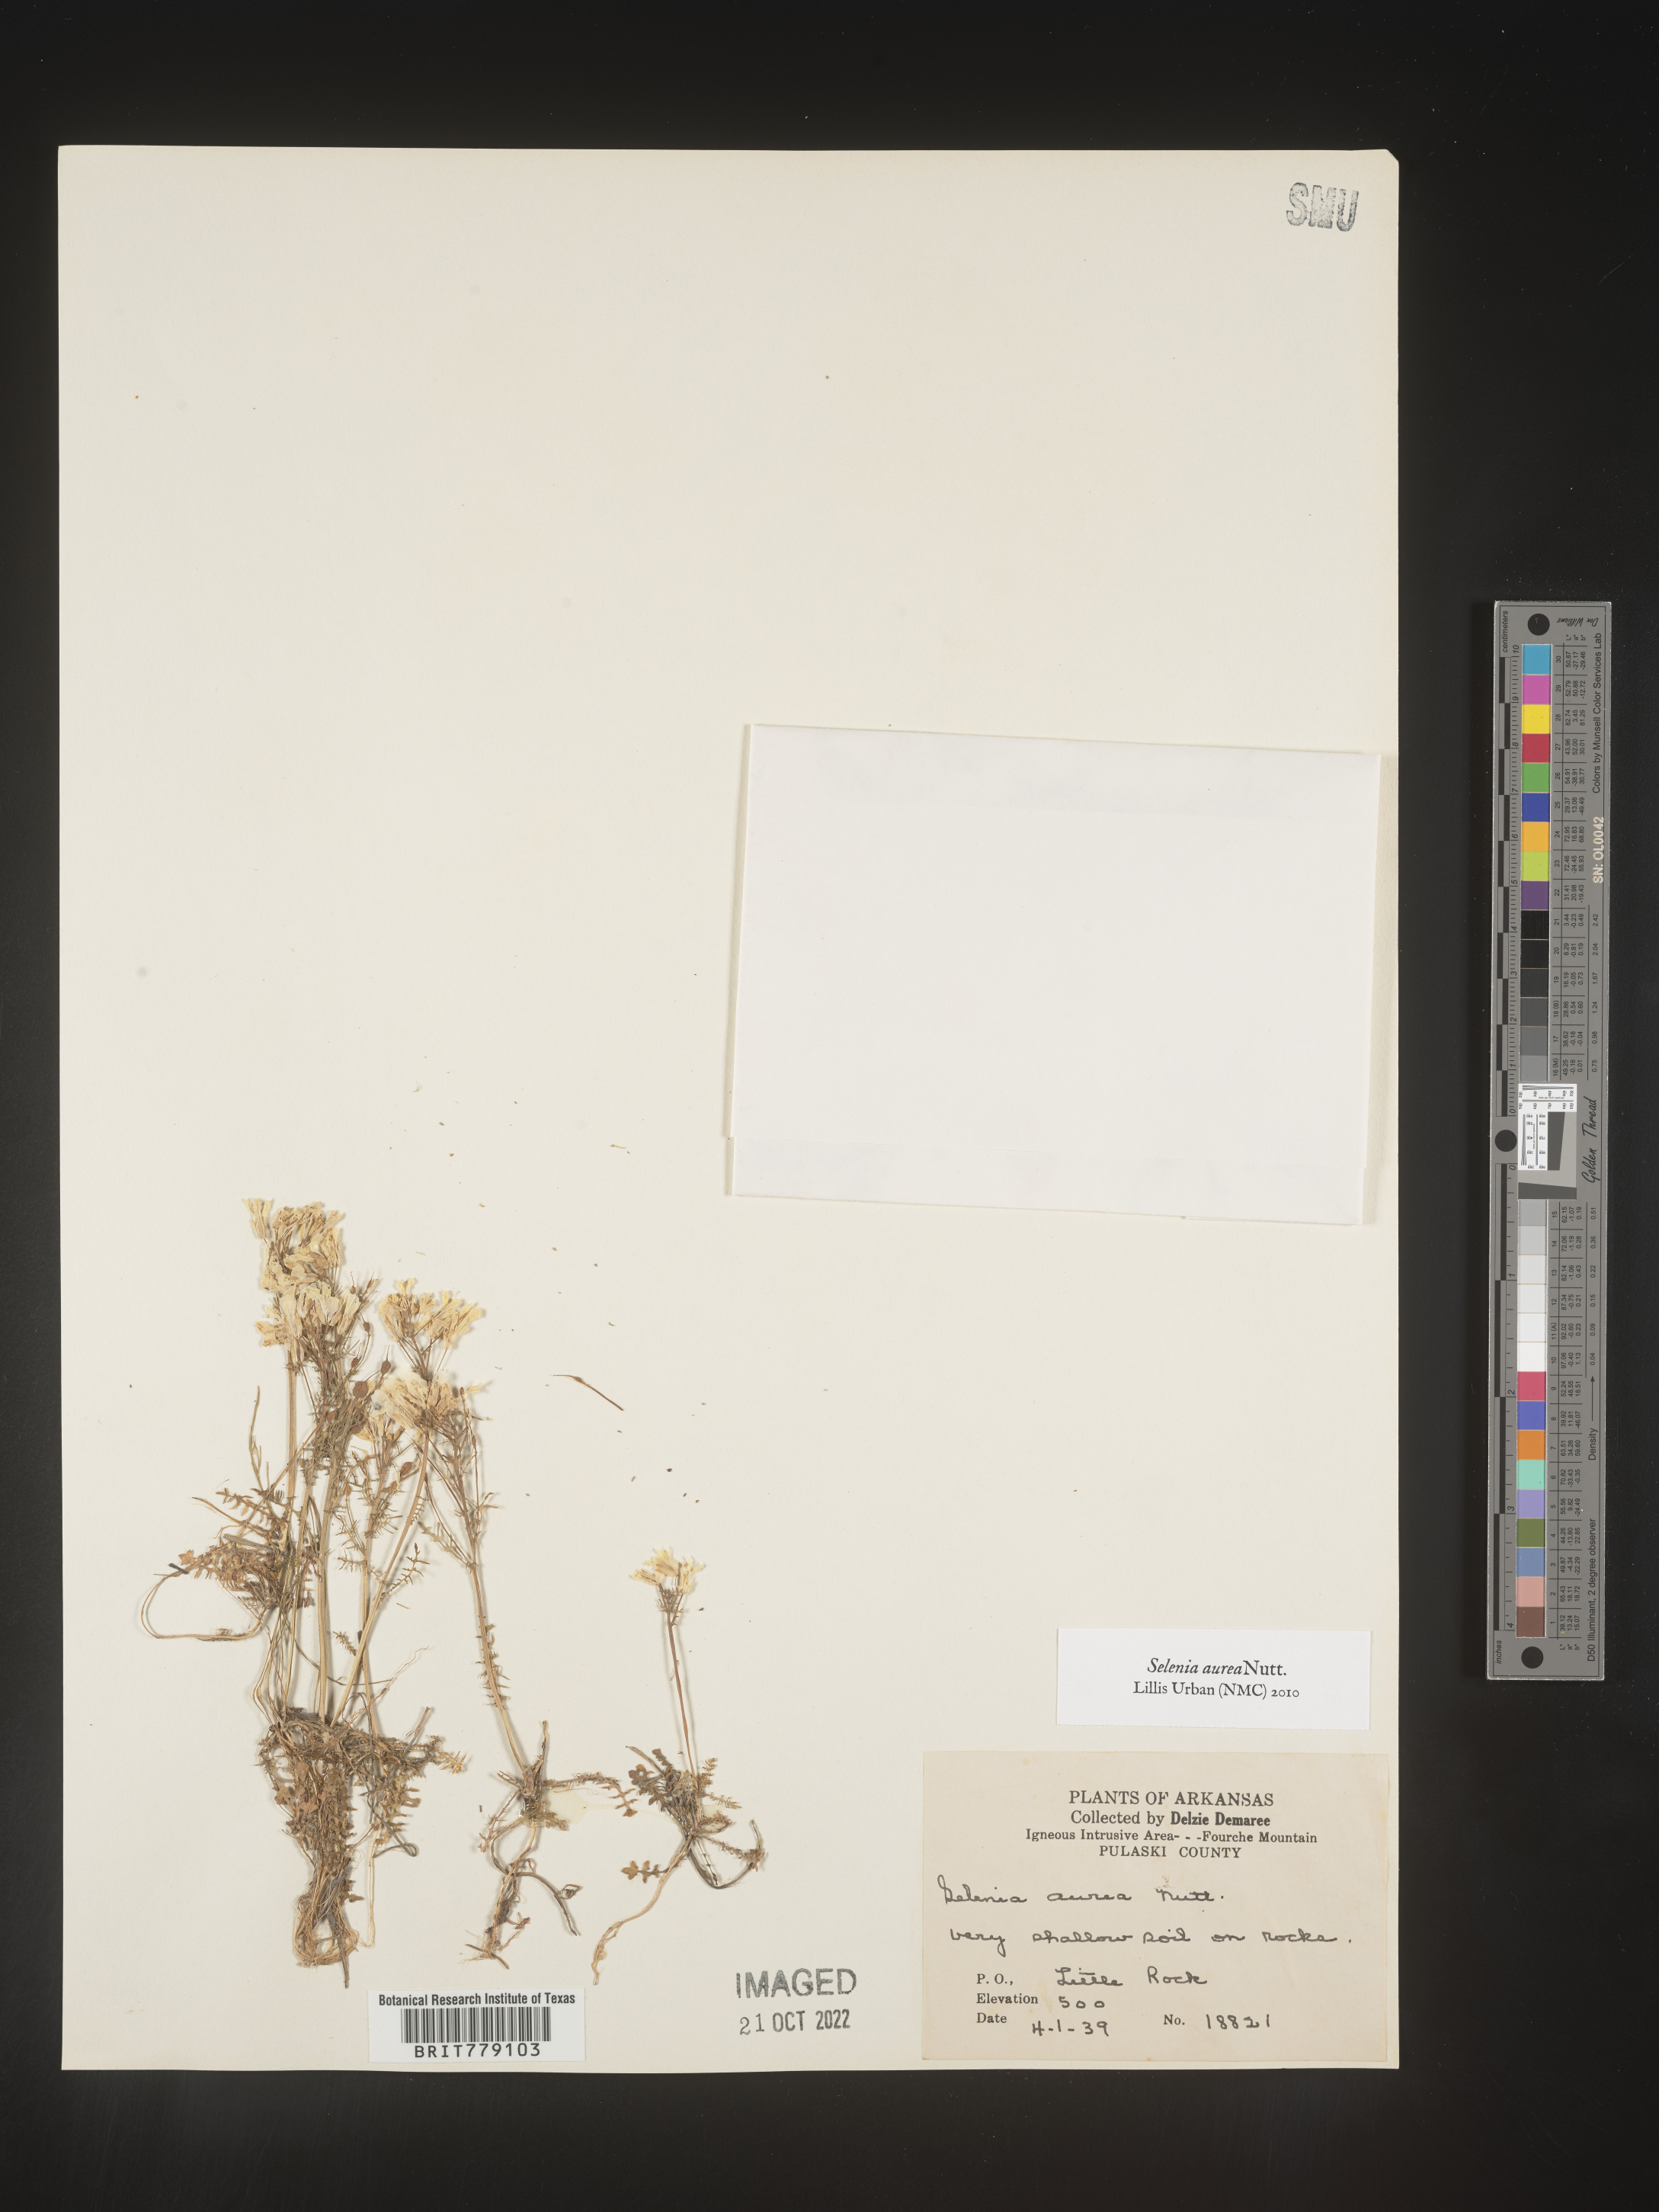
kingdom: Plantae
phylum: Tracheophyta
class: Magnoliopsida
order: Brassicales
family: Brassicaceae
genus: Selenia
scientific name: Selenia
